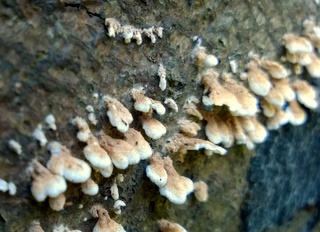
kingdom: Fungi
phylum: Basidiomycota
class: Agaricomycetes
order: Amylocorticiales
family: Amylocorticiaceae
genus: Plicaturopsis
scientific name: Plicaturopsis crispa
